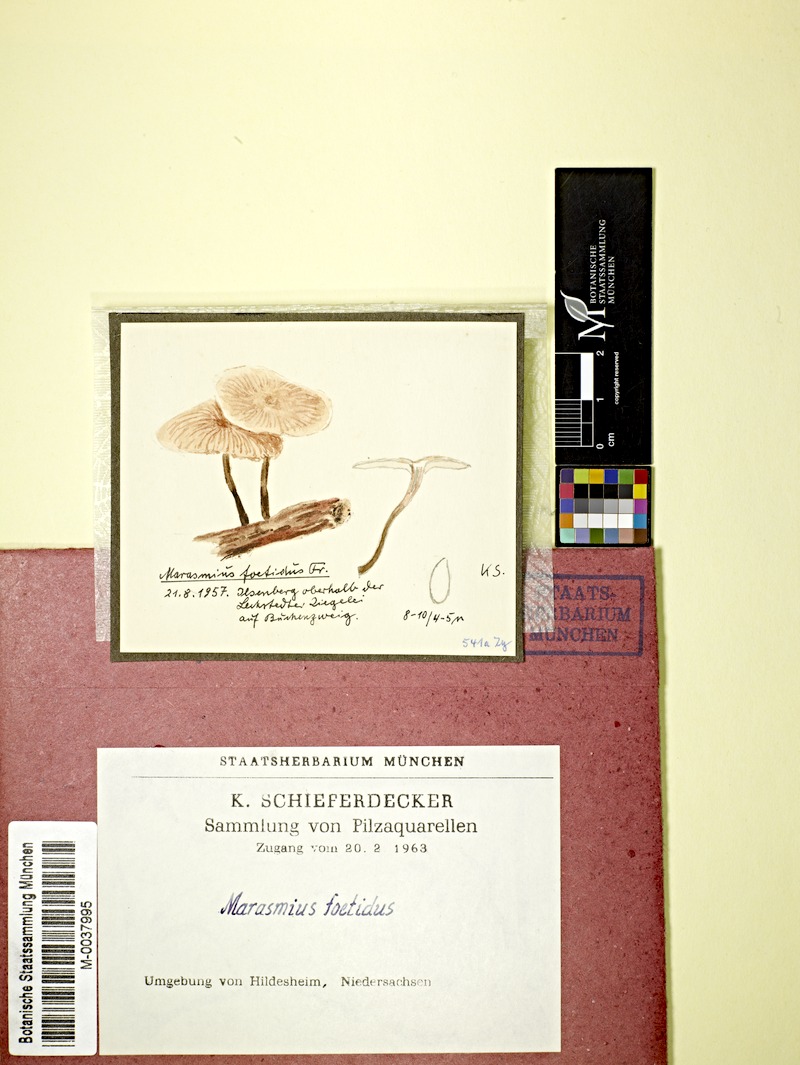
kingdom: Plantae
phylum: Tracheophyta
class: Magnoliopsida
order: Fagales
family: Fagaceae
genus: Fagus
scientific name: Fagus
